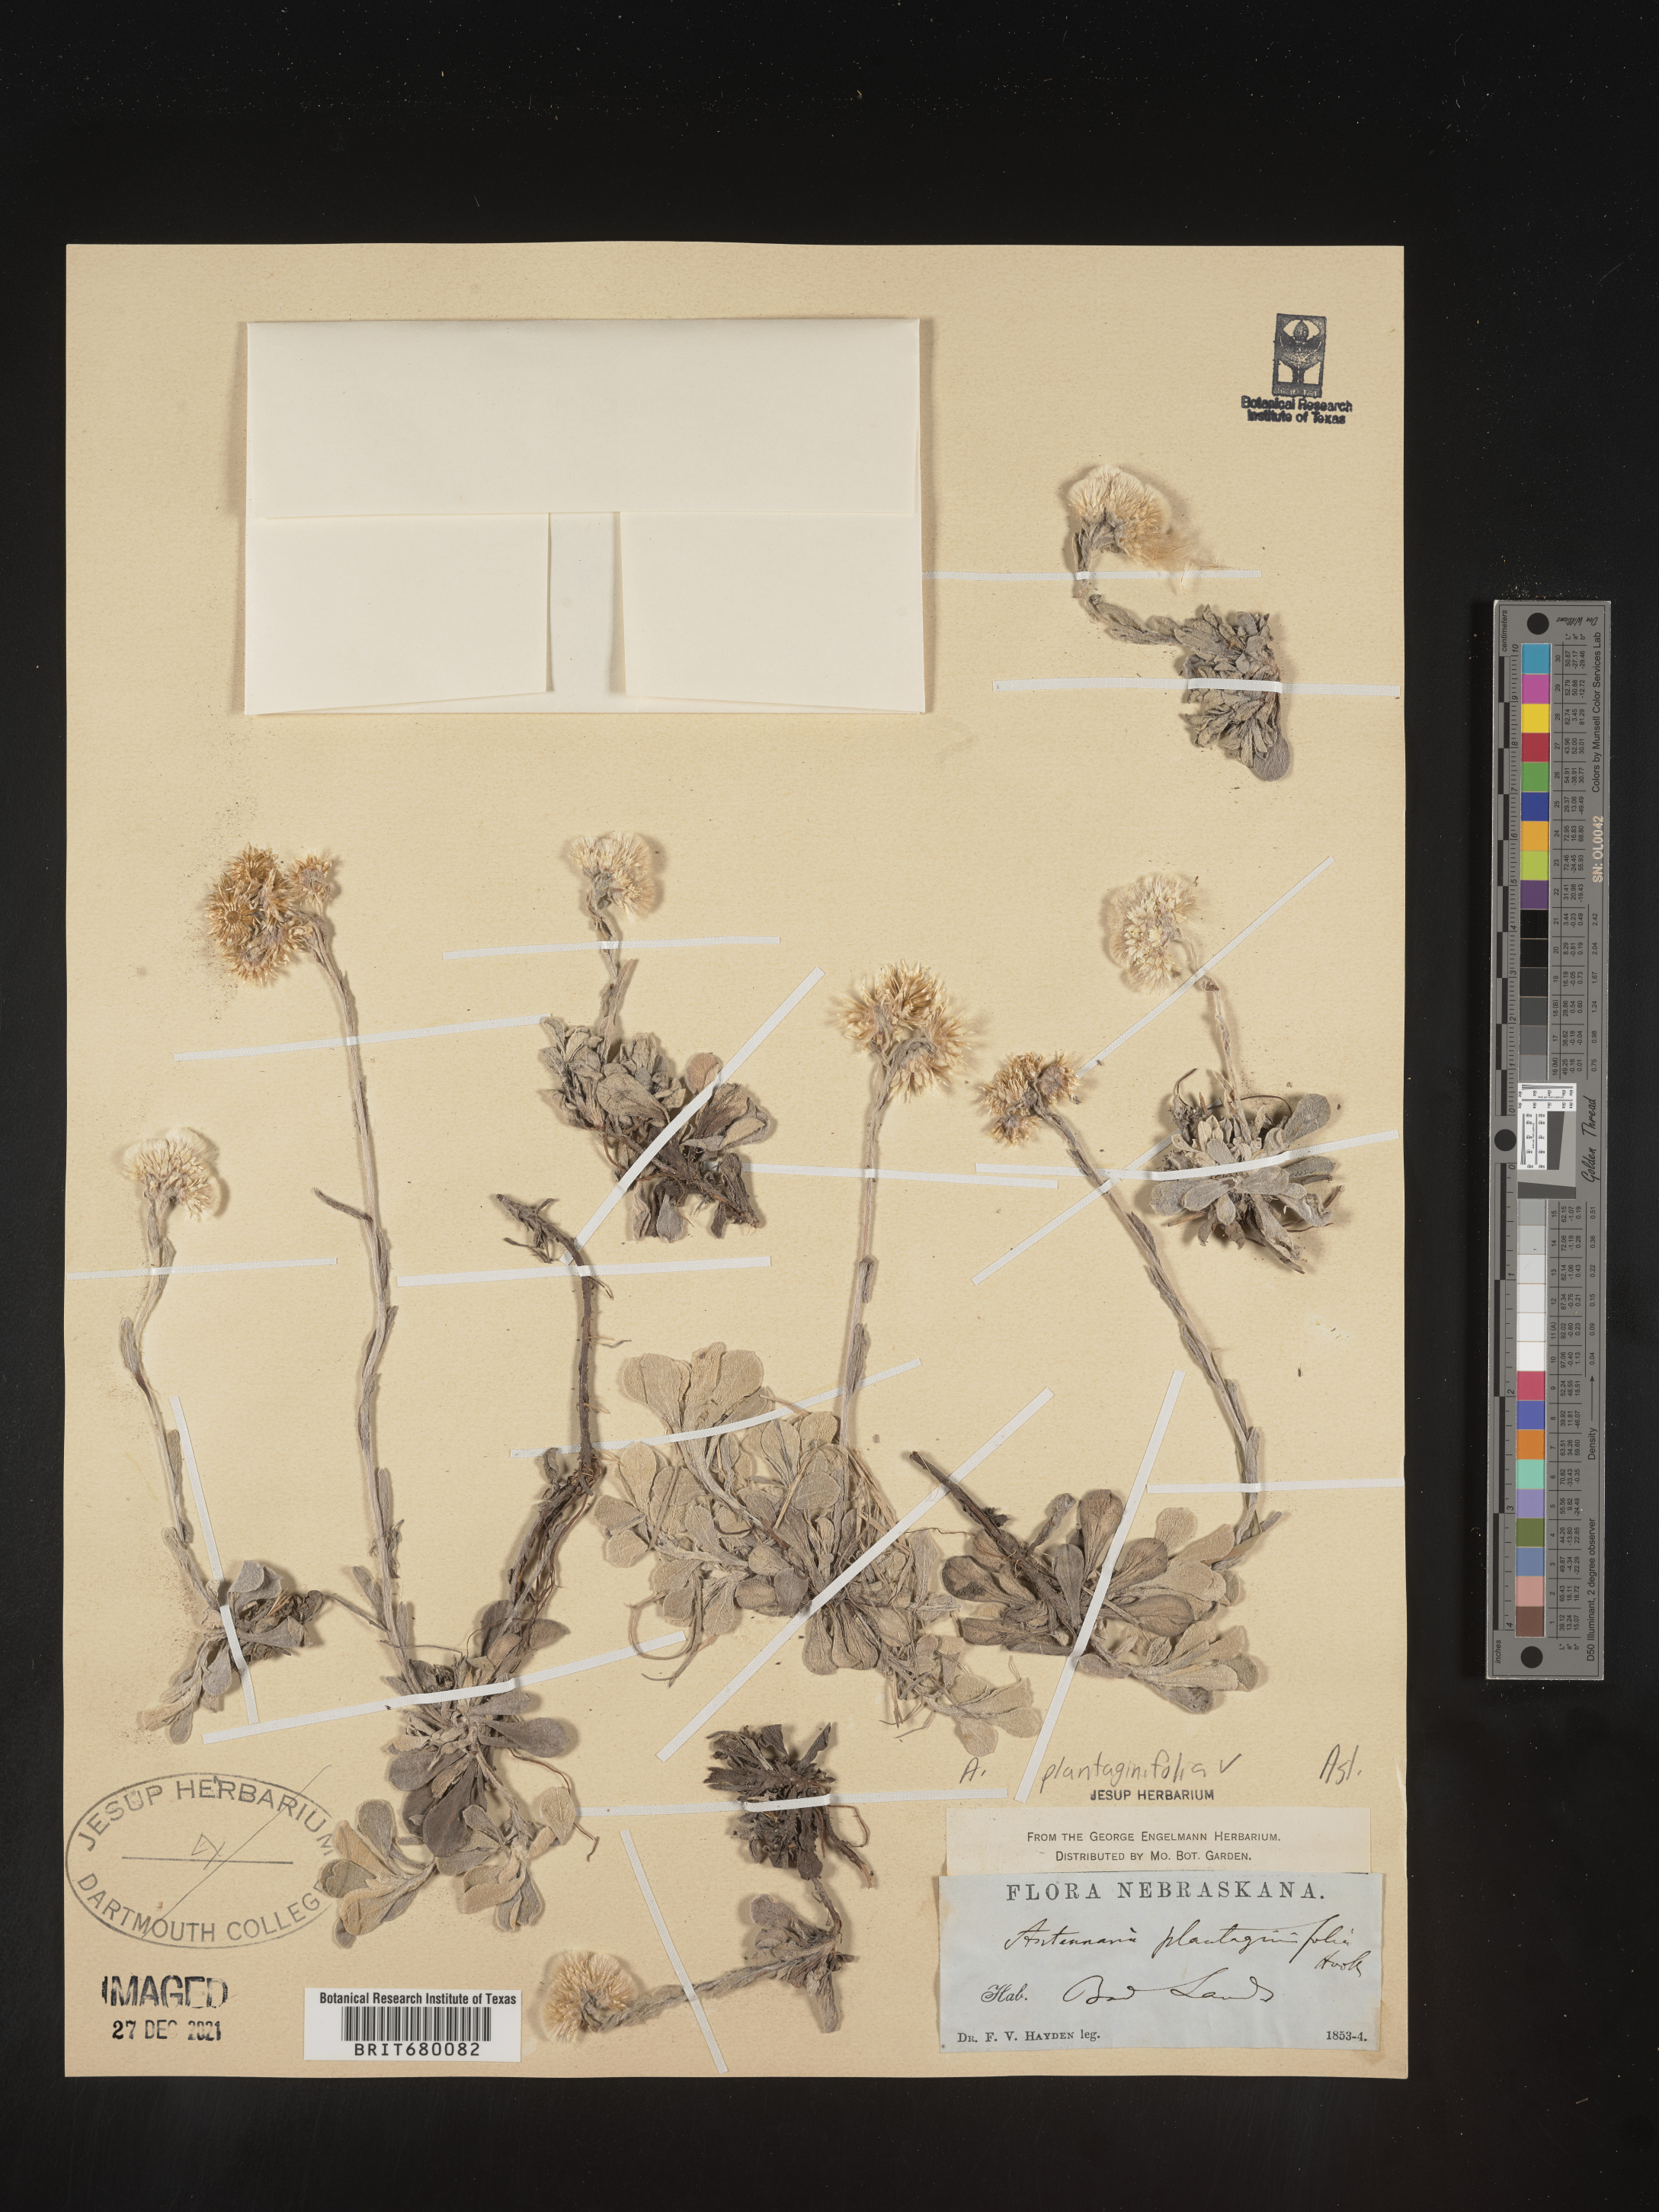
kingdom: Plantae
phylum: Tracheophyta
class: Magnoliopsida
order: Asterales
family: Asteraceae
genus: Antennaria
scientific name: Antennaria plantaginifolia
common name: Plantain-leaved pussytoes
